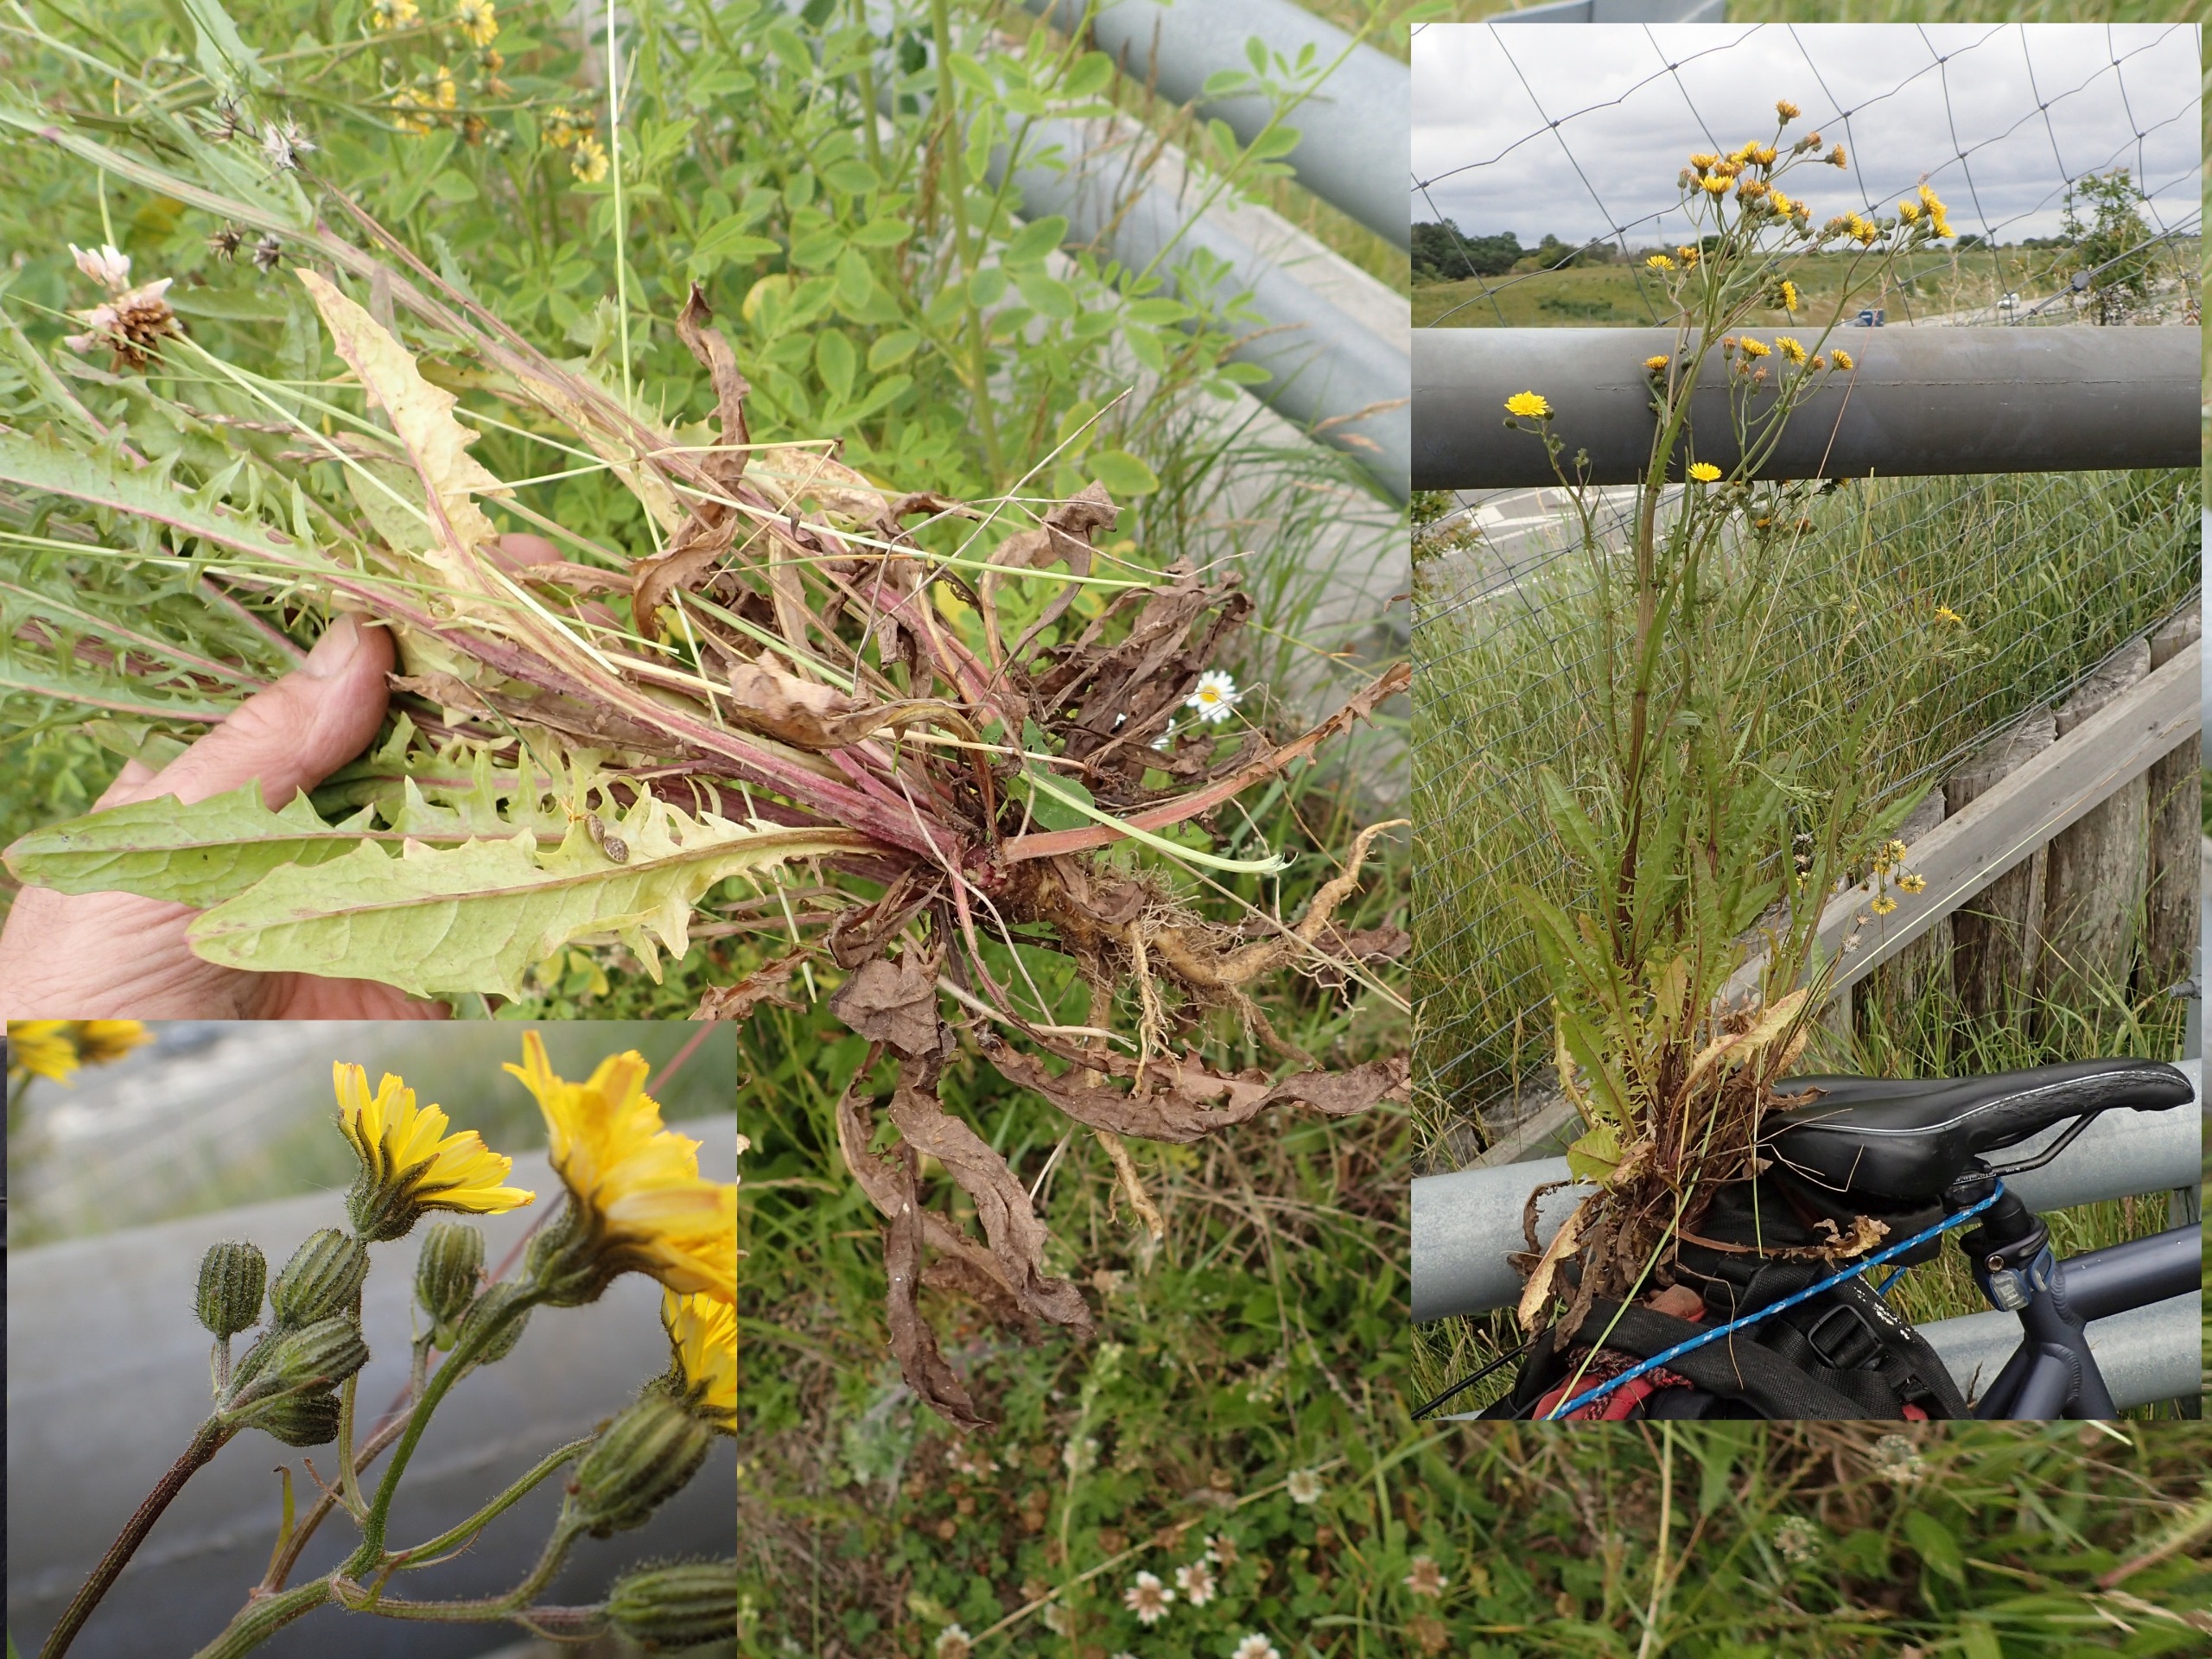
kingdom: Plantae
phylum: Tracheophyta
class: Magnoliopsida
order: Asterales
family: Asteraceae
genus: Crepis
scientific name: Crepis capillaris
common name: Grøn høgeskæg
